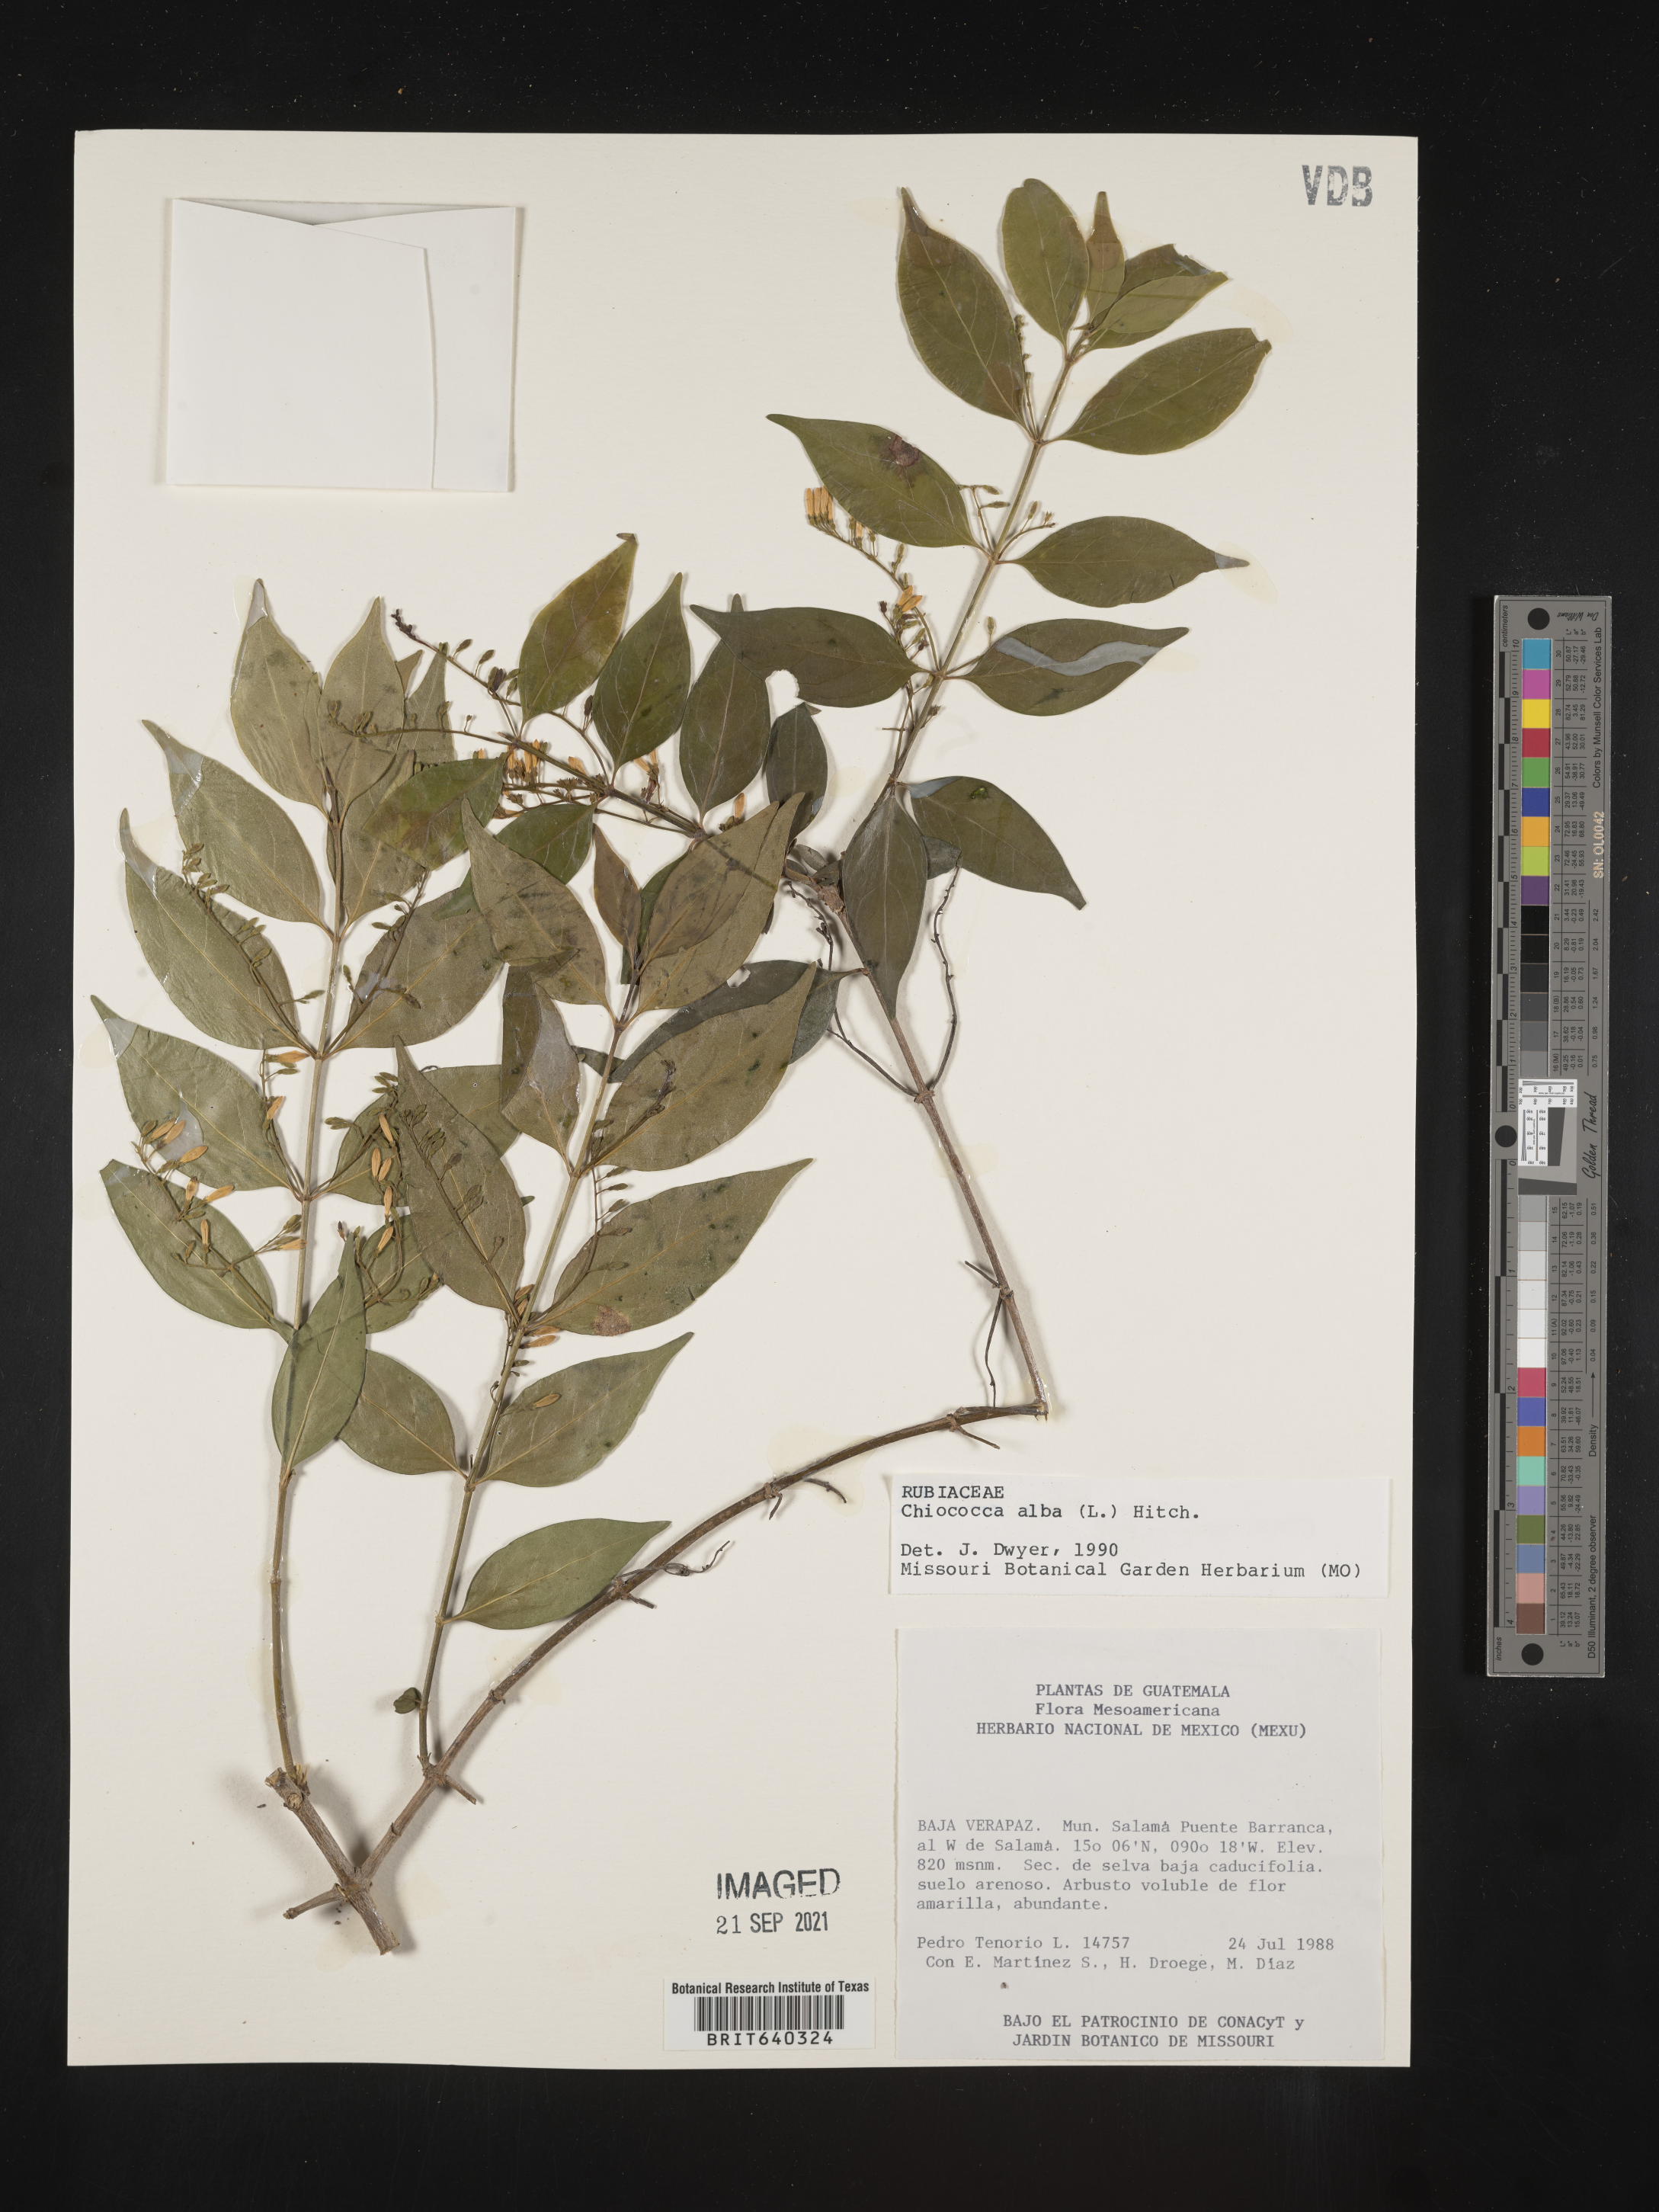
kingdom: Plantae
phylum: Tracheophyta
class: Magnoliopsida
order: Gentianales
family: Rubiaceae
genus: Chiococca
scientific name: Chiococca
